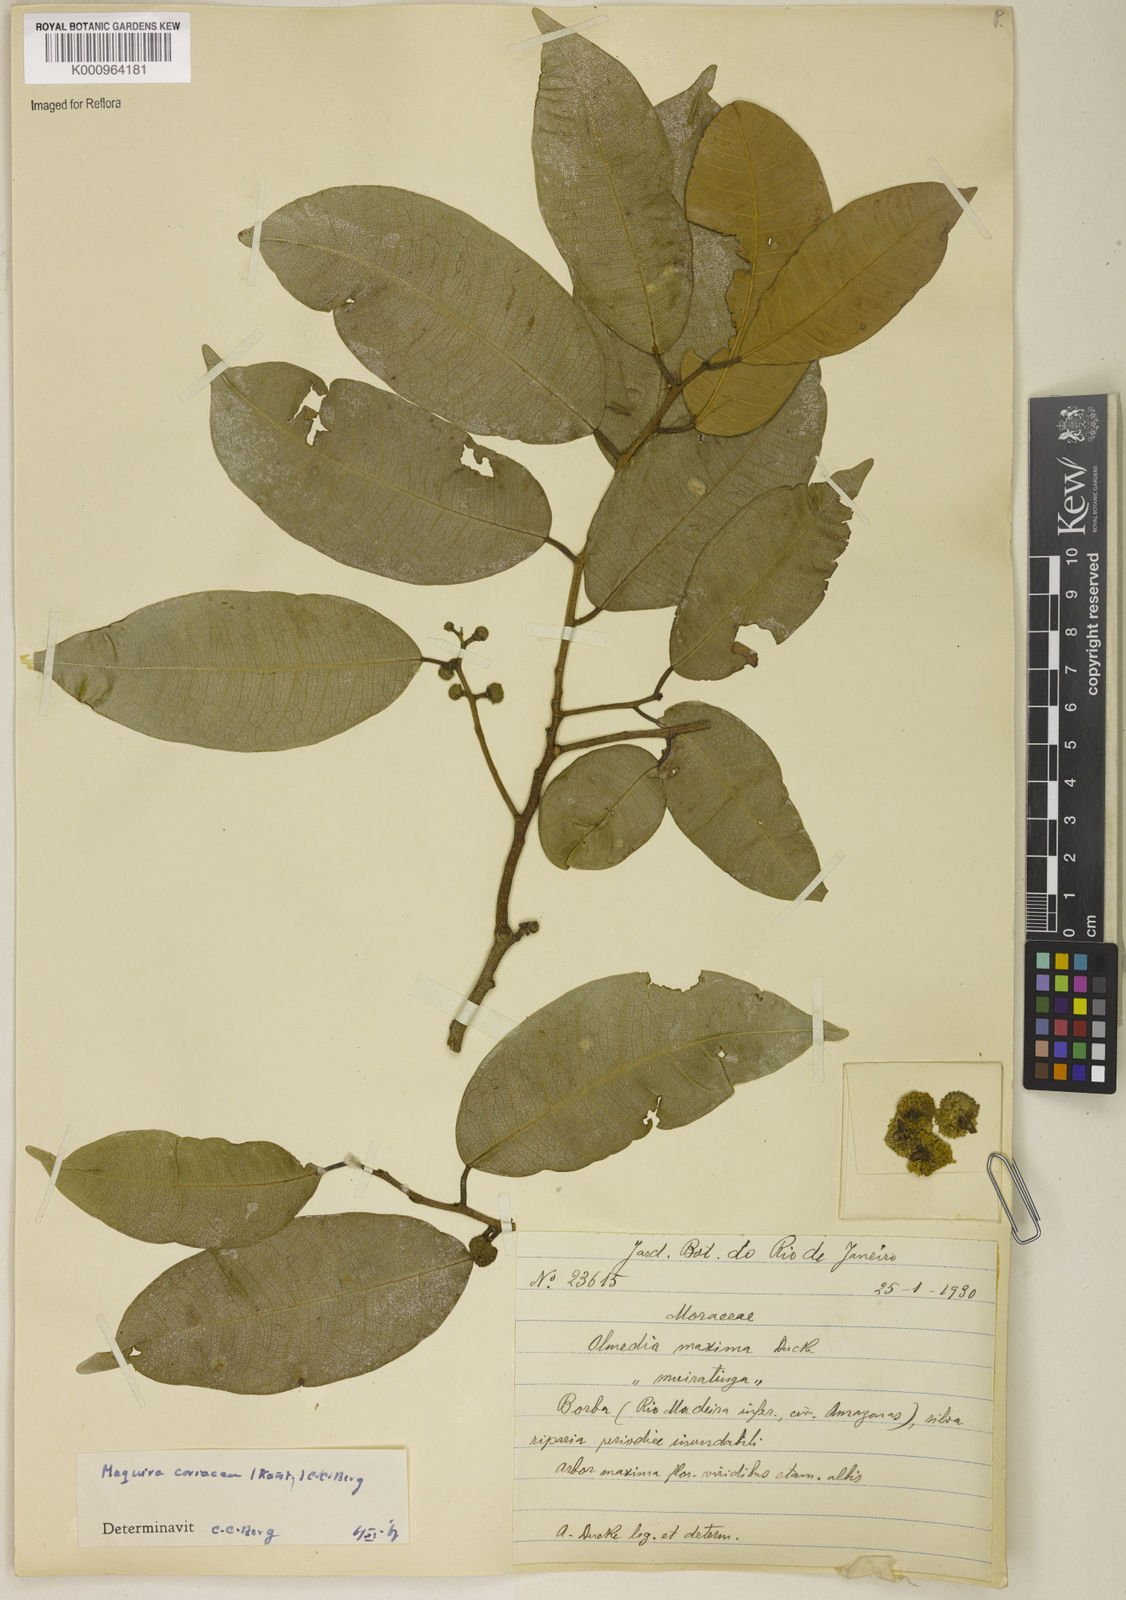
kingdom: Plantae
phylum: Tracheophyta
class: Magnoliopsida
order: Rosales
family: Moraceae
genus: Maquira
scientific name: Maquira coriacea
